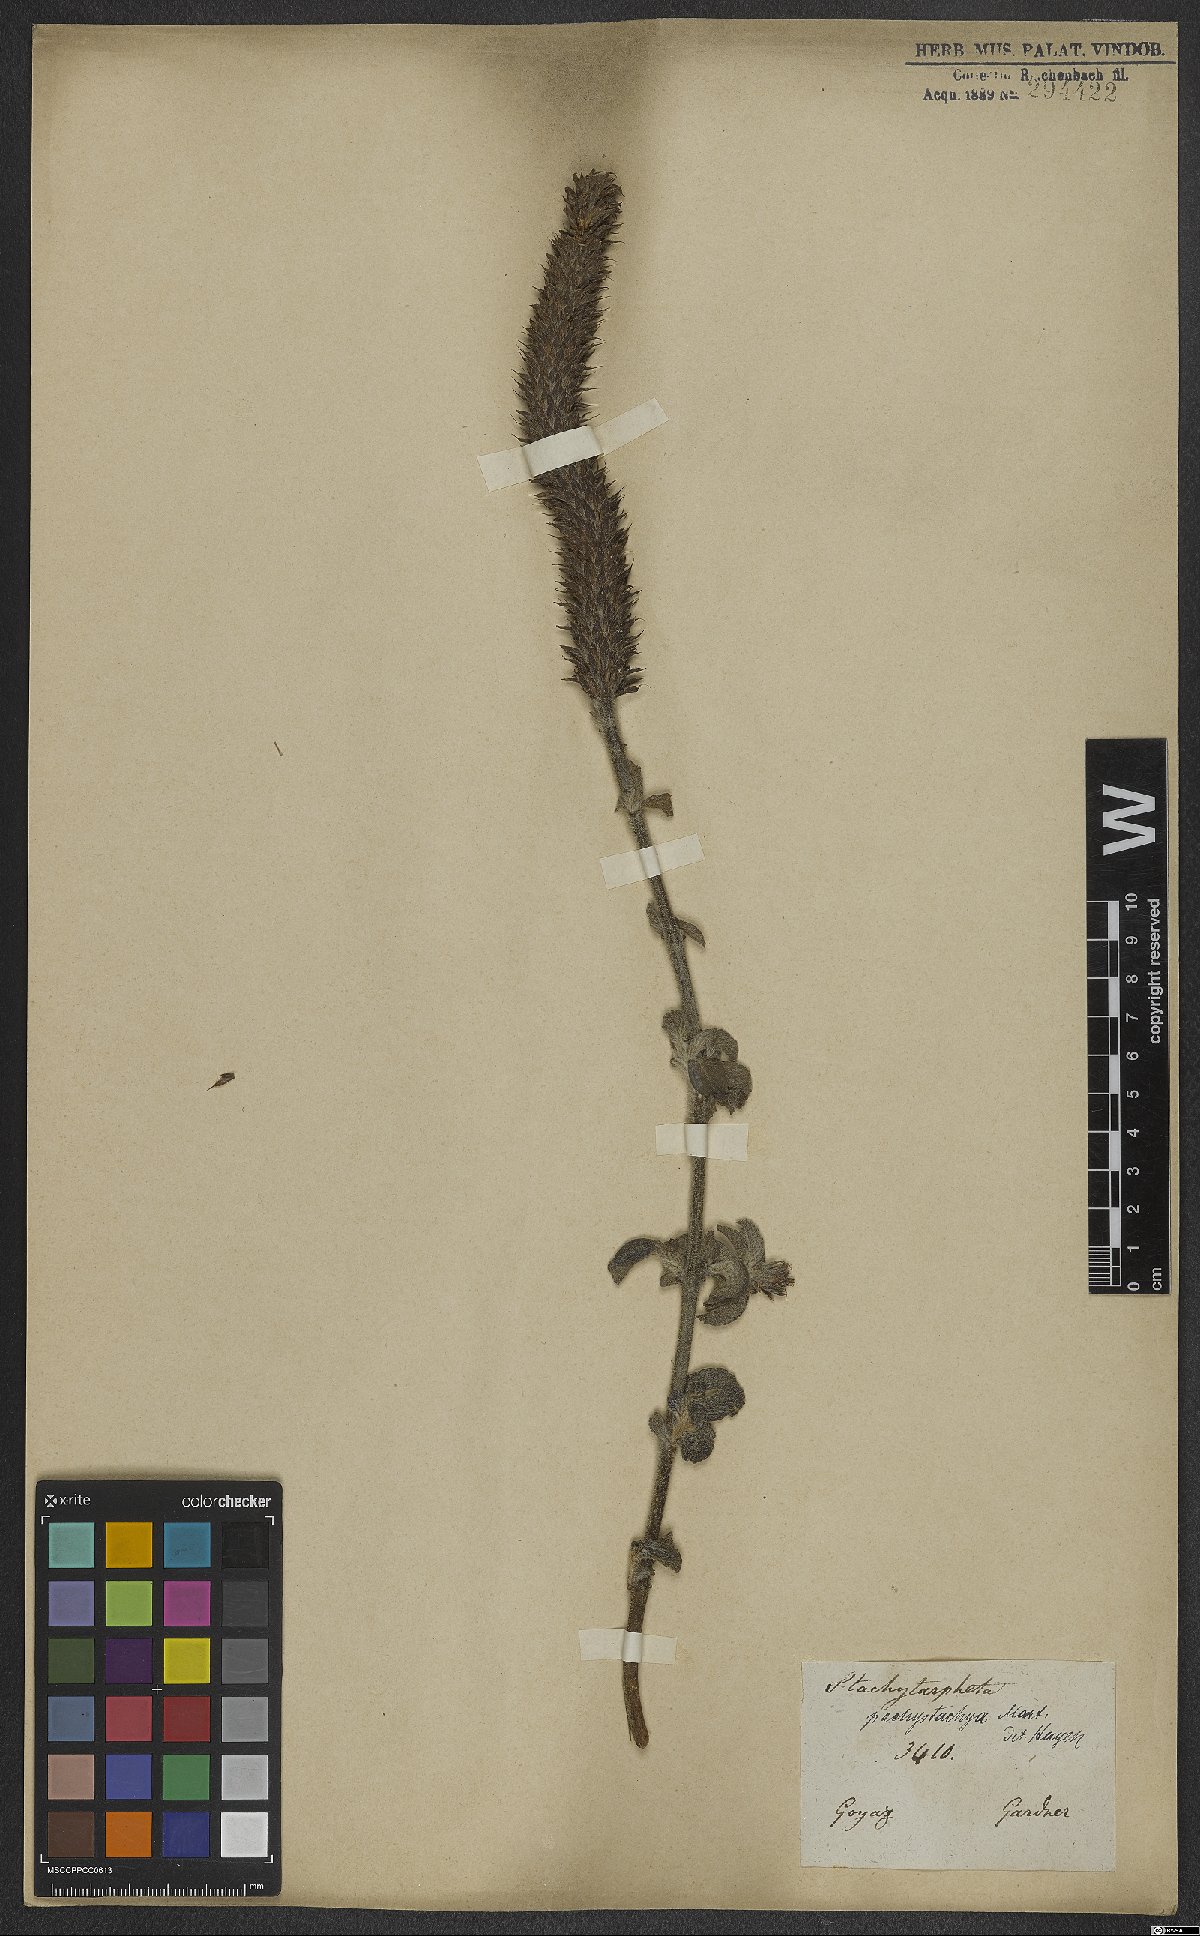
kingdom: Plantae
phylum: Tracheophyta
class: Magnoliopsida
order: Lamiales
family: Verbenaceae
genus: Stachytarpheta
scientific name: Stachytarpheta pachystachya
